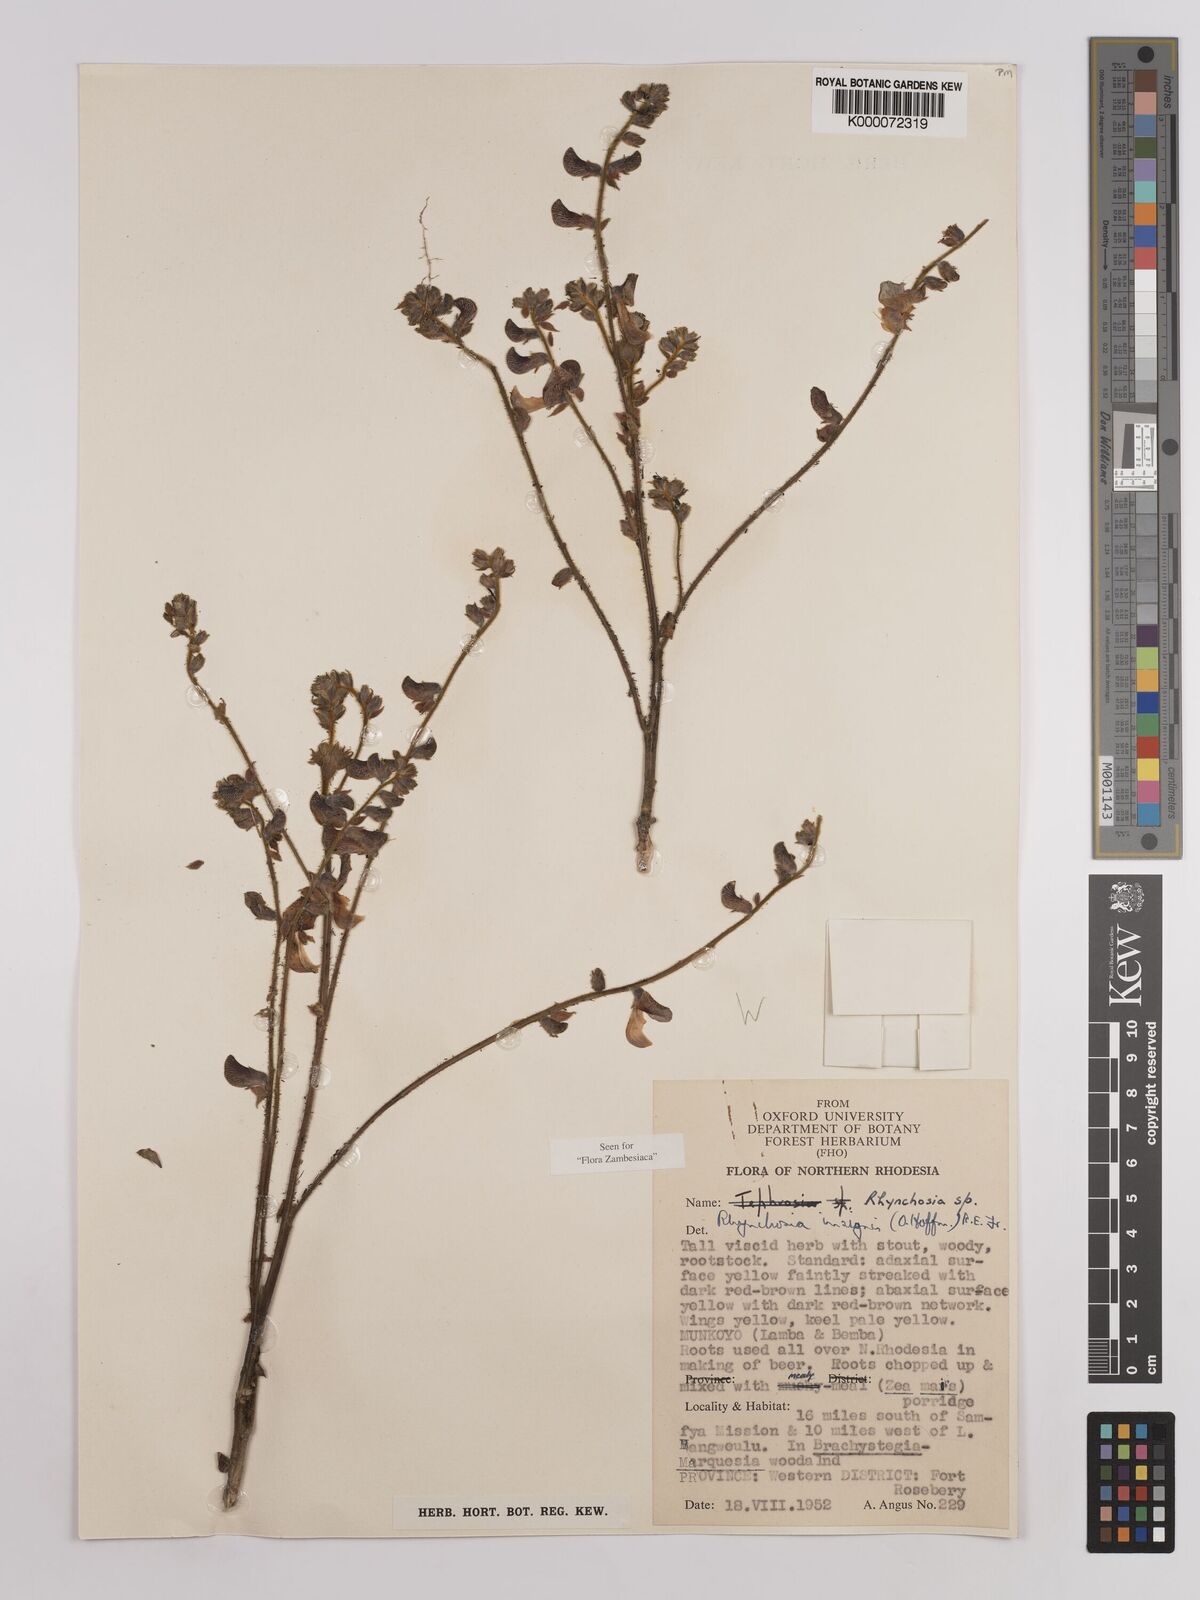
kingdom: Plantae
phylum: Tracheophyta
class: Magnoliopsida
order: Fabales
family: Fabaceae
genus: Rhynchosia
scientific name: Rhynchosia insignis
